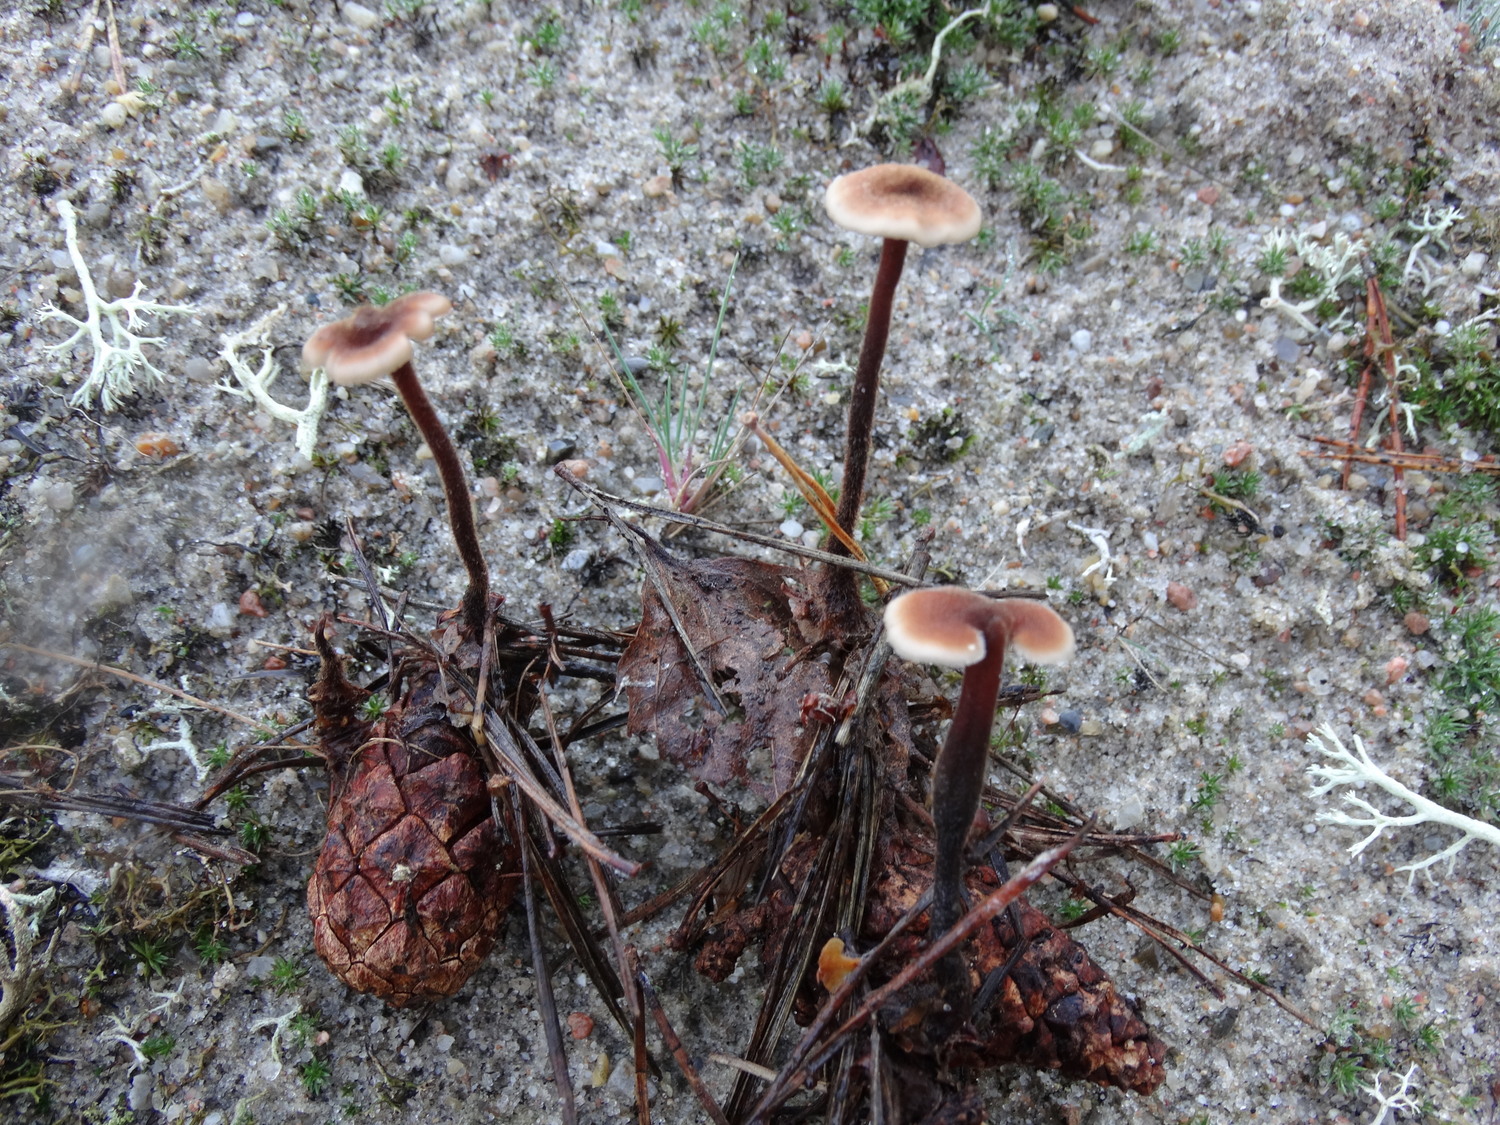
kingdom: Fungi
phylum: Basidiomycota
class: Agaricomycetes
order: Russulales
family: Auriscalpiaceae
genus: Auriscalpium
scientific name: Auriscalpium vulgare
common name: koglepigsvamp
